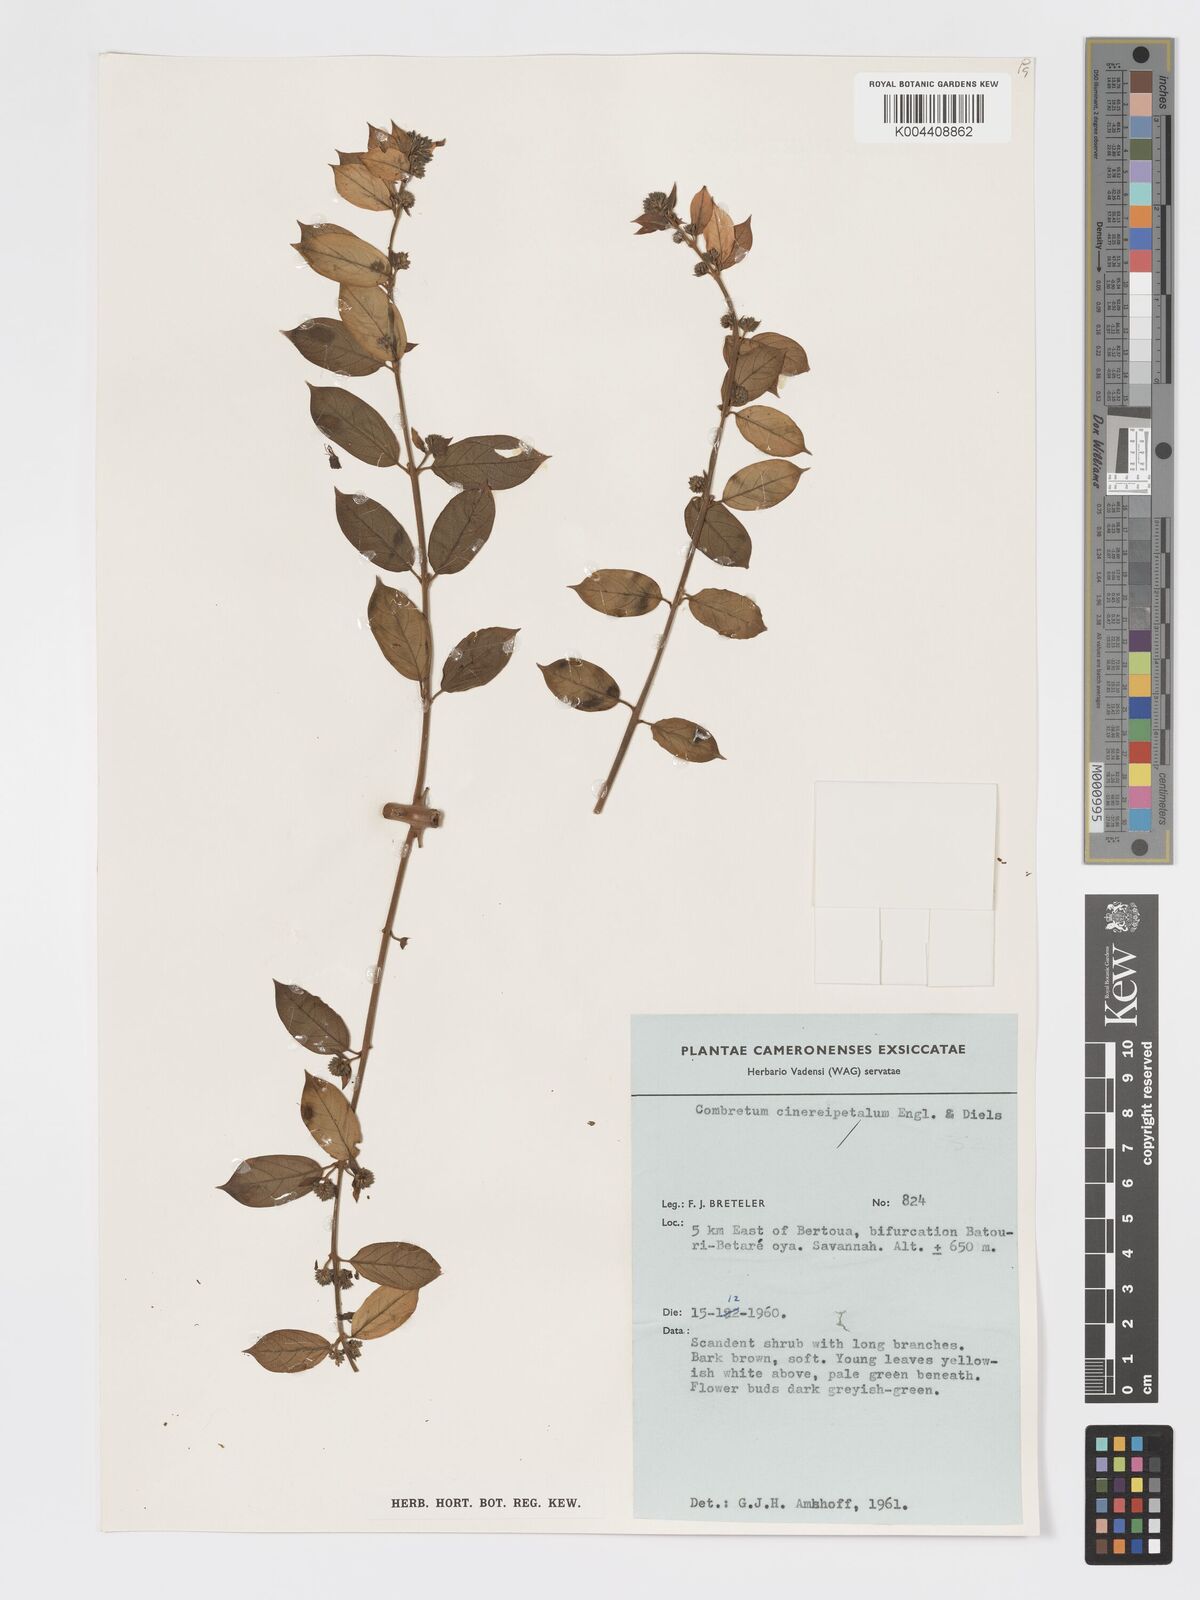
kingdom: Plantae
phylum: Tracheophyta
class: Magnoliopsida
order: Myrtales
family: Combretaceae
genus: Combretum
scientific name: Combretum cinereopetalum
